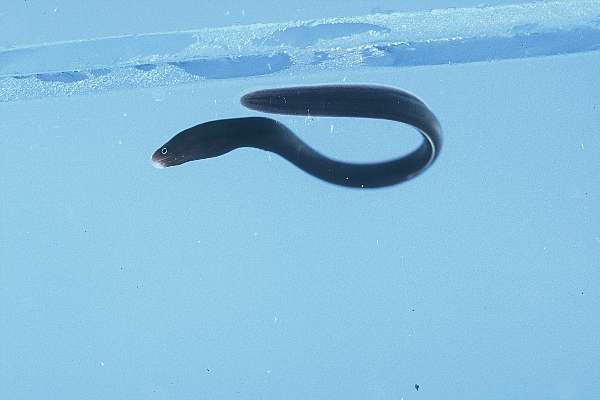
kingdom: Animalia
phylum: Chordata
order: Anguilliformes
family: Muraenidae
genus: Gymnothorax
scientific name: Gymnothorax flavimarginatus
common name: Yellow-edged moray
